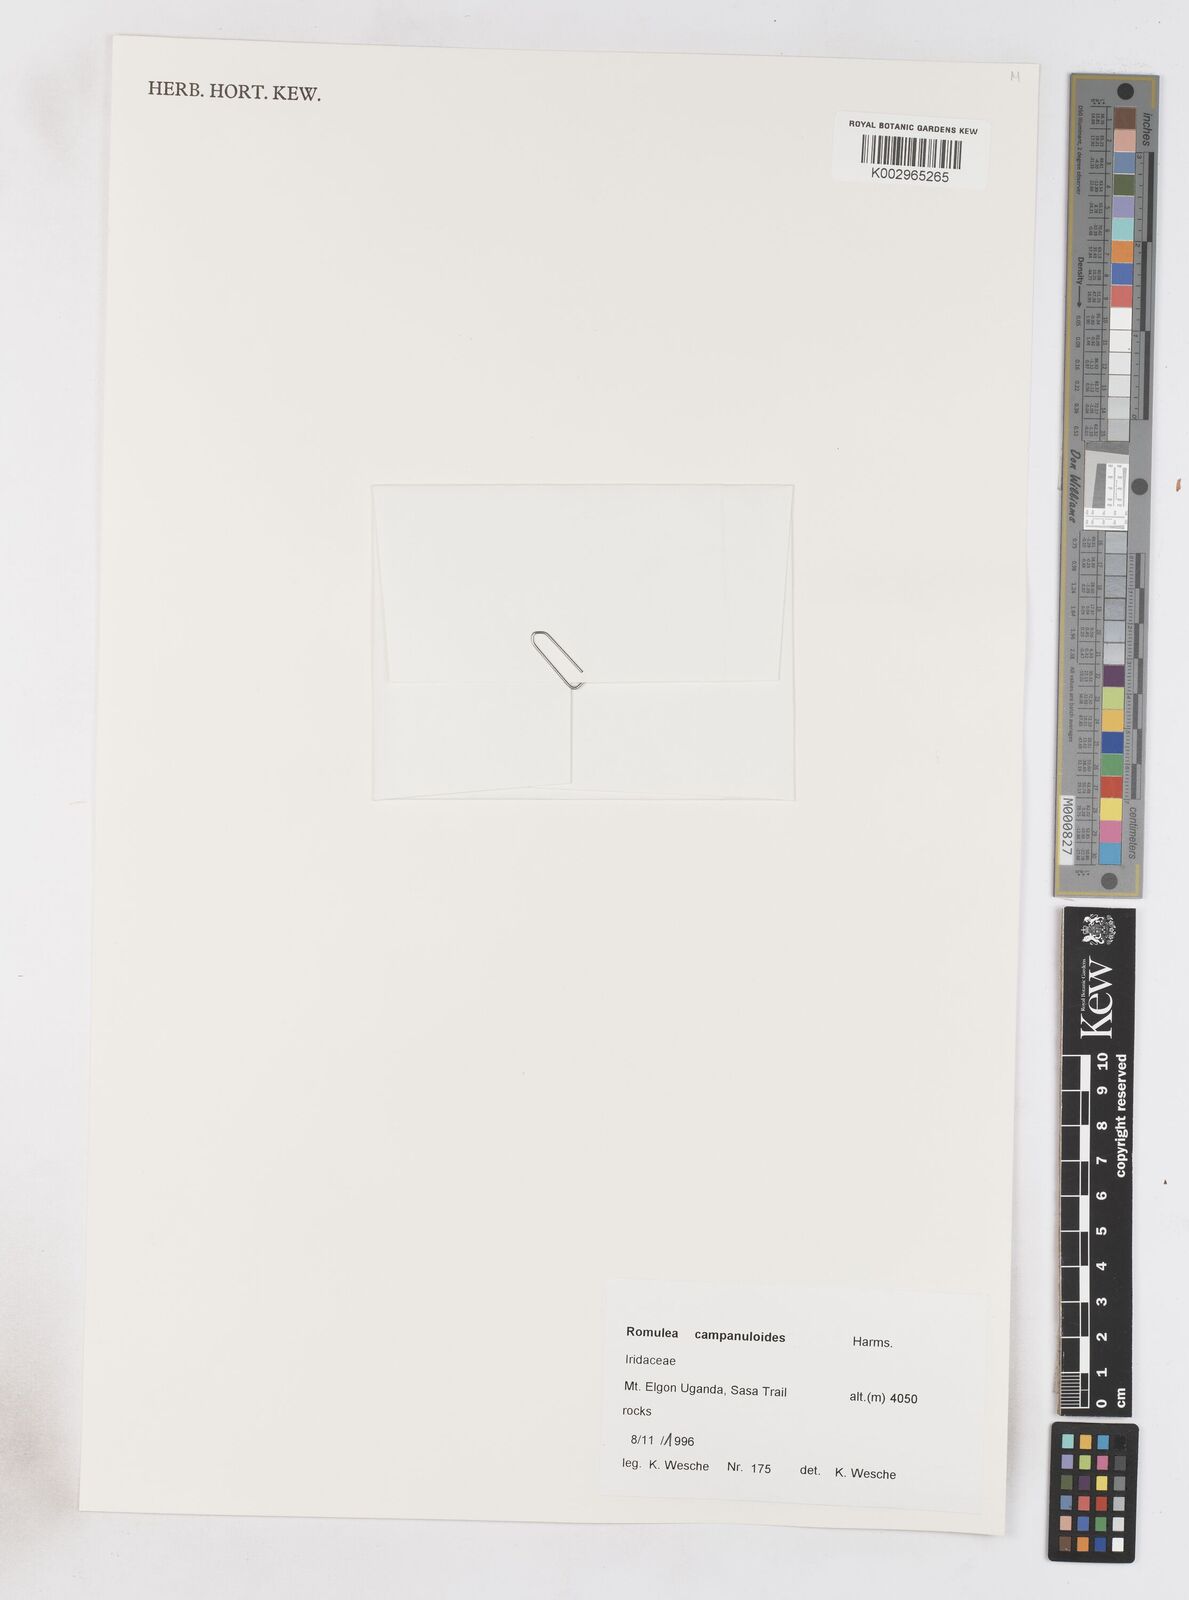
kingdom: Plantae
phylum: Tracheophyta
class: Liliopsida
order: Asparagales
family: Iridaceae
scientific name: Iridaceae
